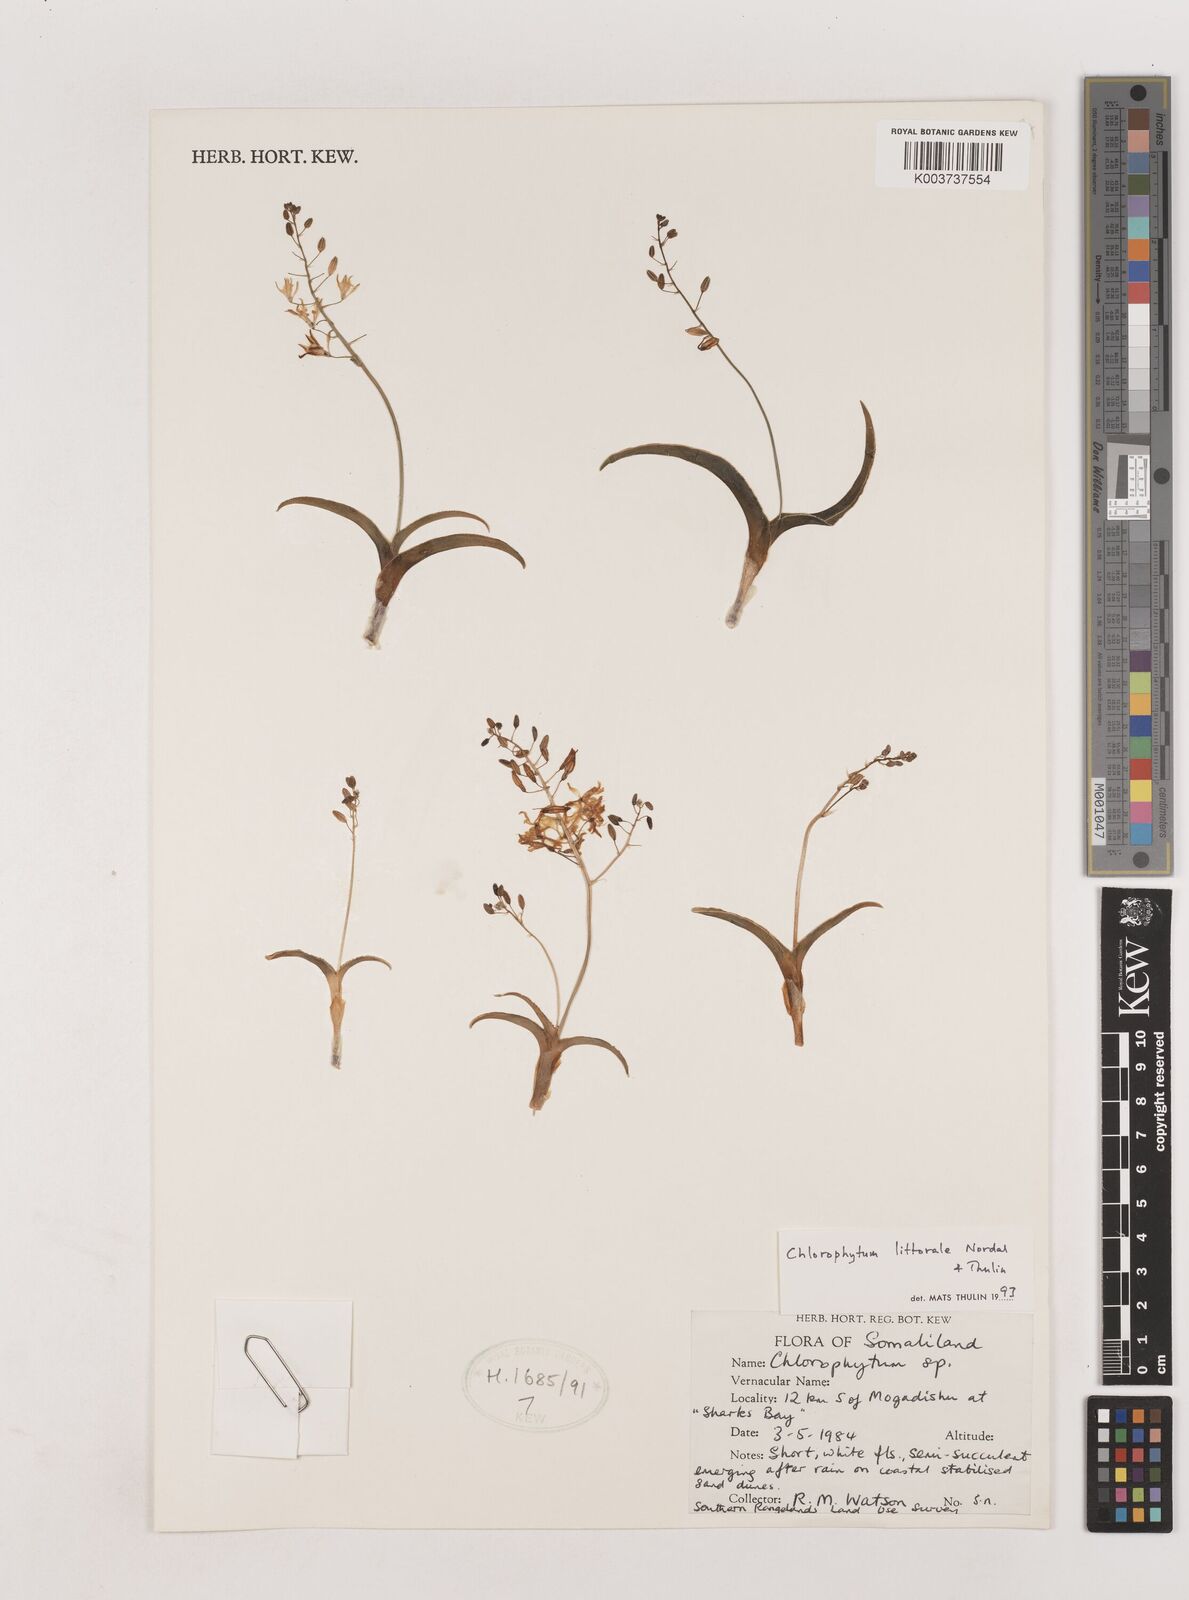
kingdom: Plantae
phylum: Tracheophyta
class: Liliopsida
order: Asparagales
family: Asparagaceae
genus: Chlorophytum
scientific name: Chlorophytum littorale
